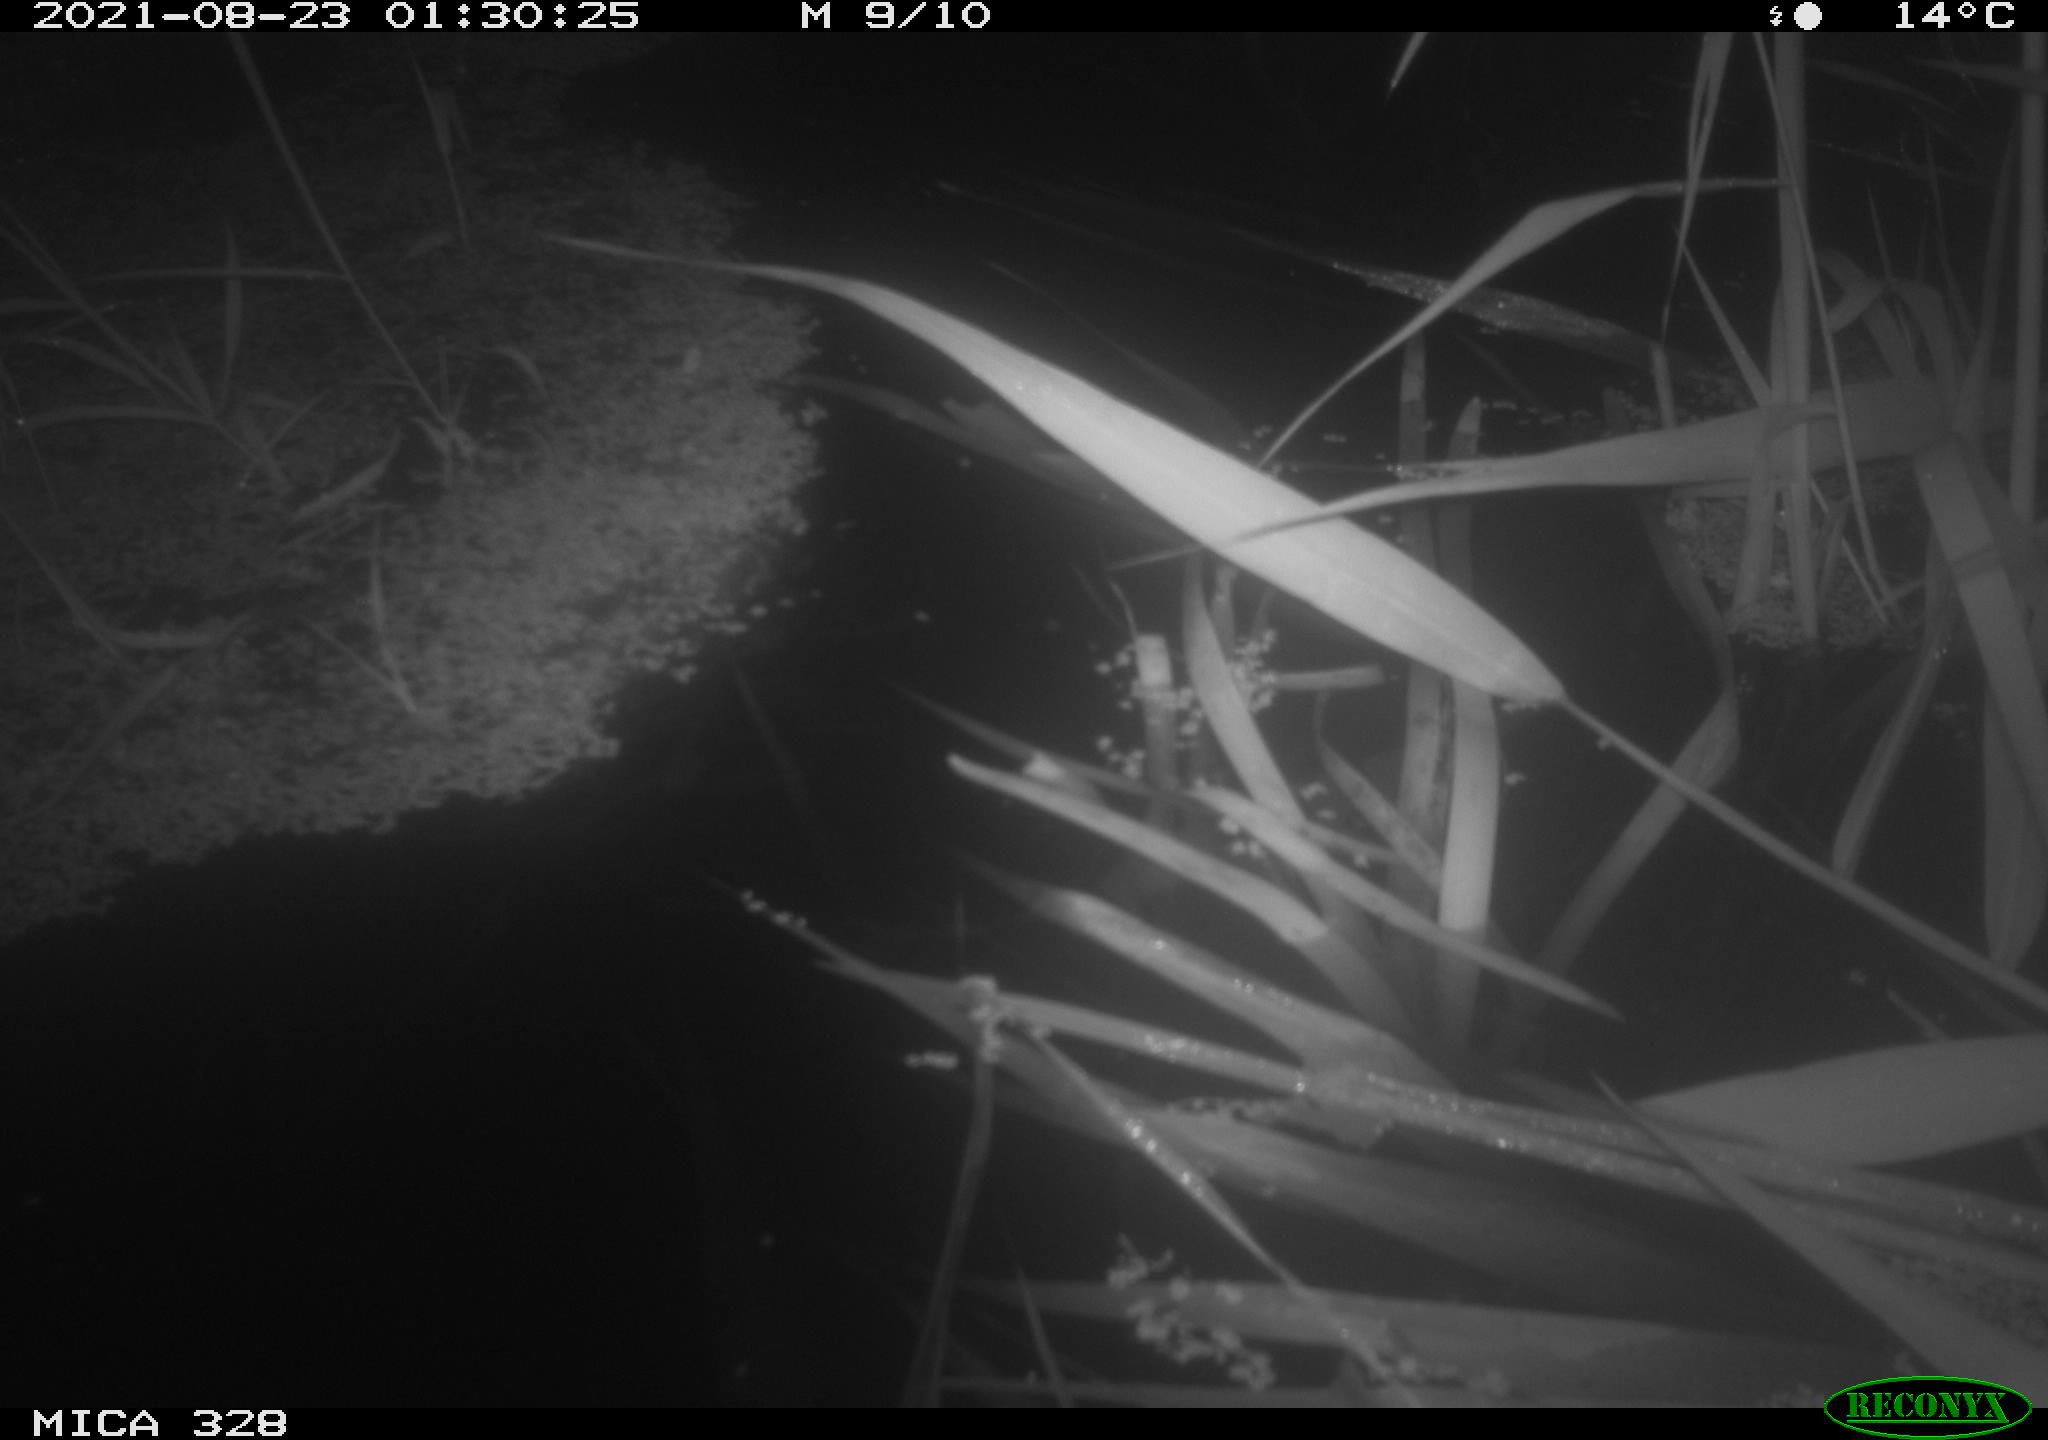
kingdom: Animalia
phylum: Chordata
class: Mammalia
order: Rodentia
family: Cricetidae
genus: Ondatra
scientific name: Ondatra zibethicus
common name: Muskrat
